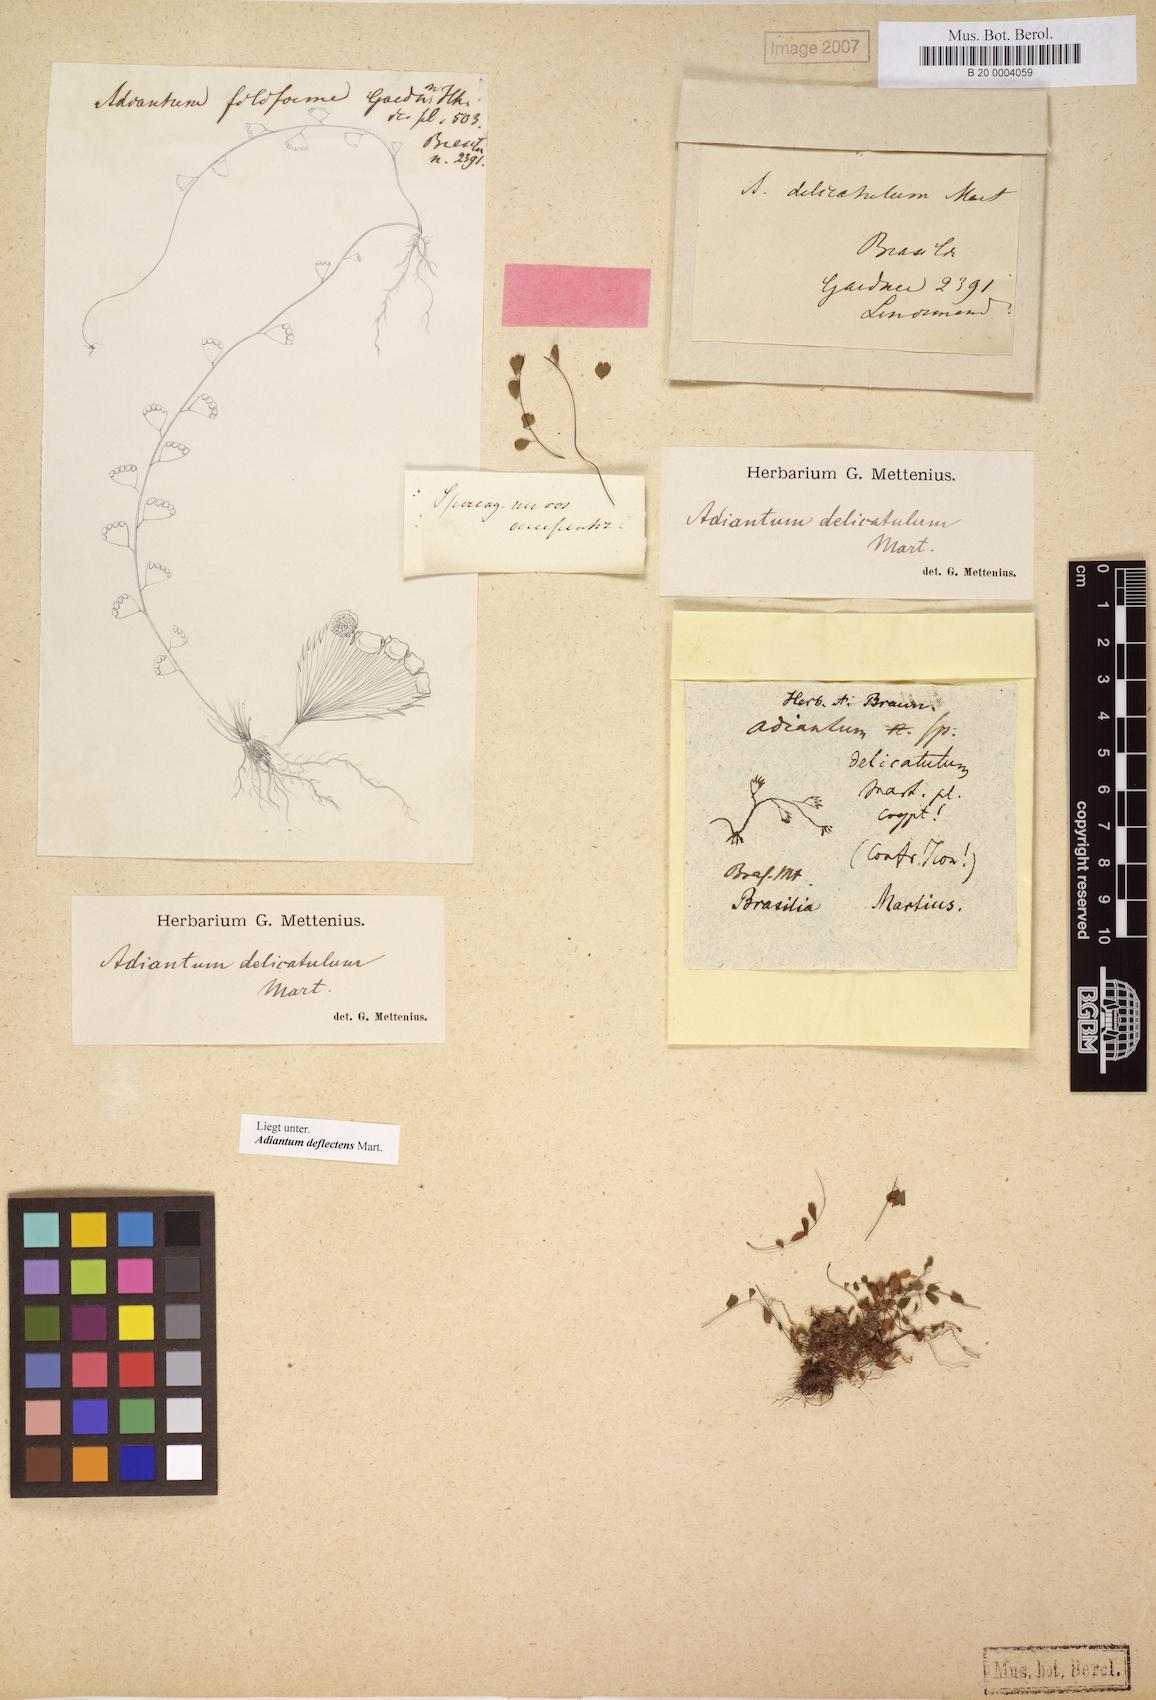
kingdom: Plantae
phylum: Tracheophyta
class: Polypodiopsida
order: Polypodiales
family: Pteridaceae
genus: Adiantum
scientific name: Adiantum deflectens
